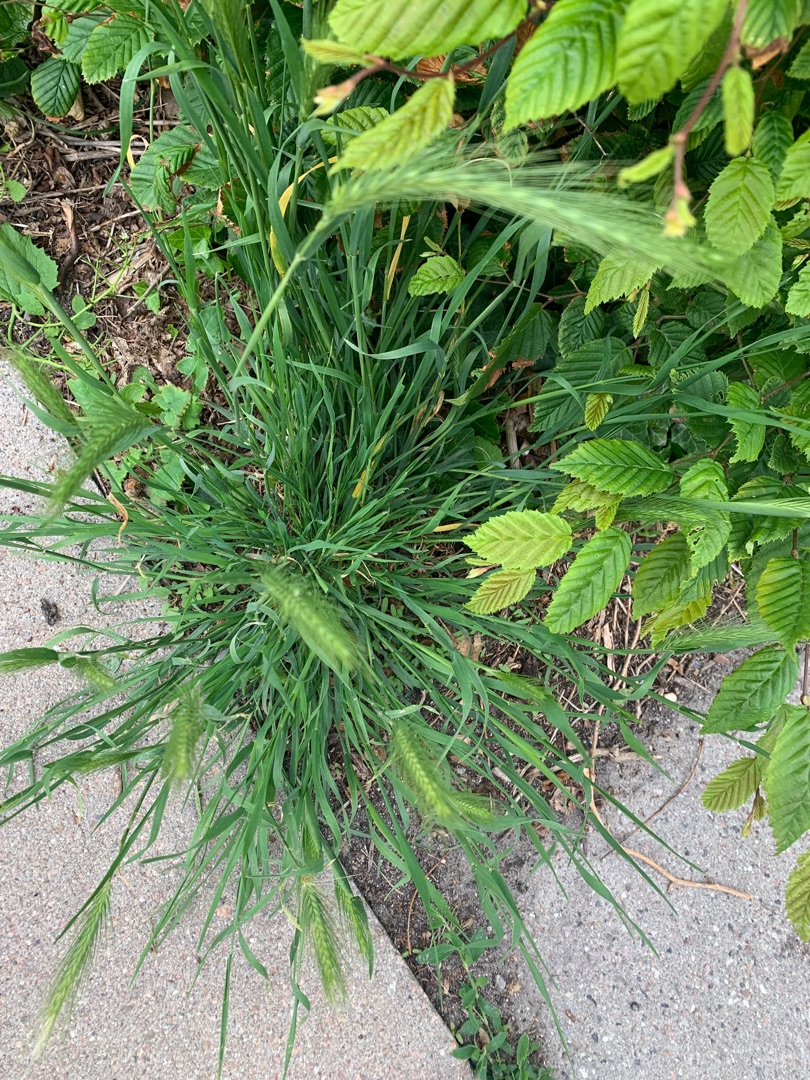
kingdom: Plantae
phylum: Tracheophyta
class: Liliopsida
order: Poales
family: Poaceae
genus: Bromus
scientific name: Bromus sterilis
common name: Gold hejre
